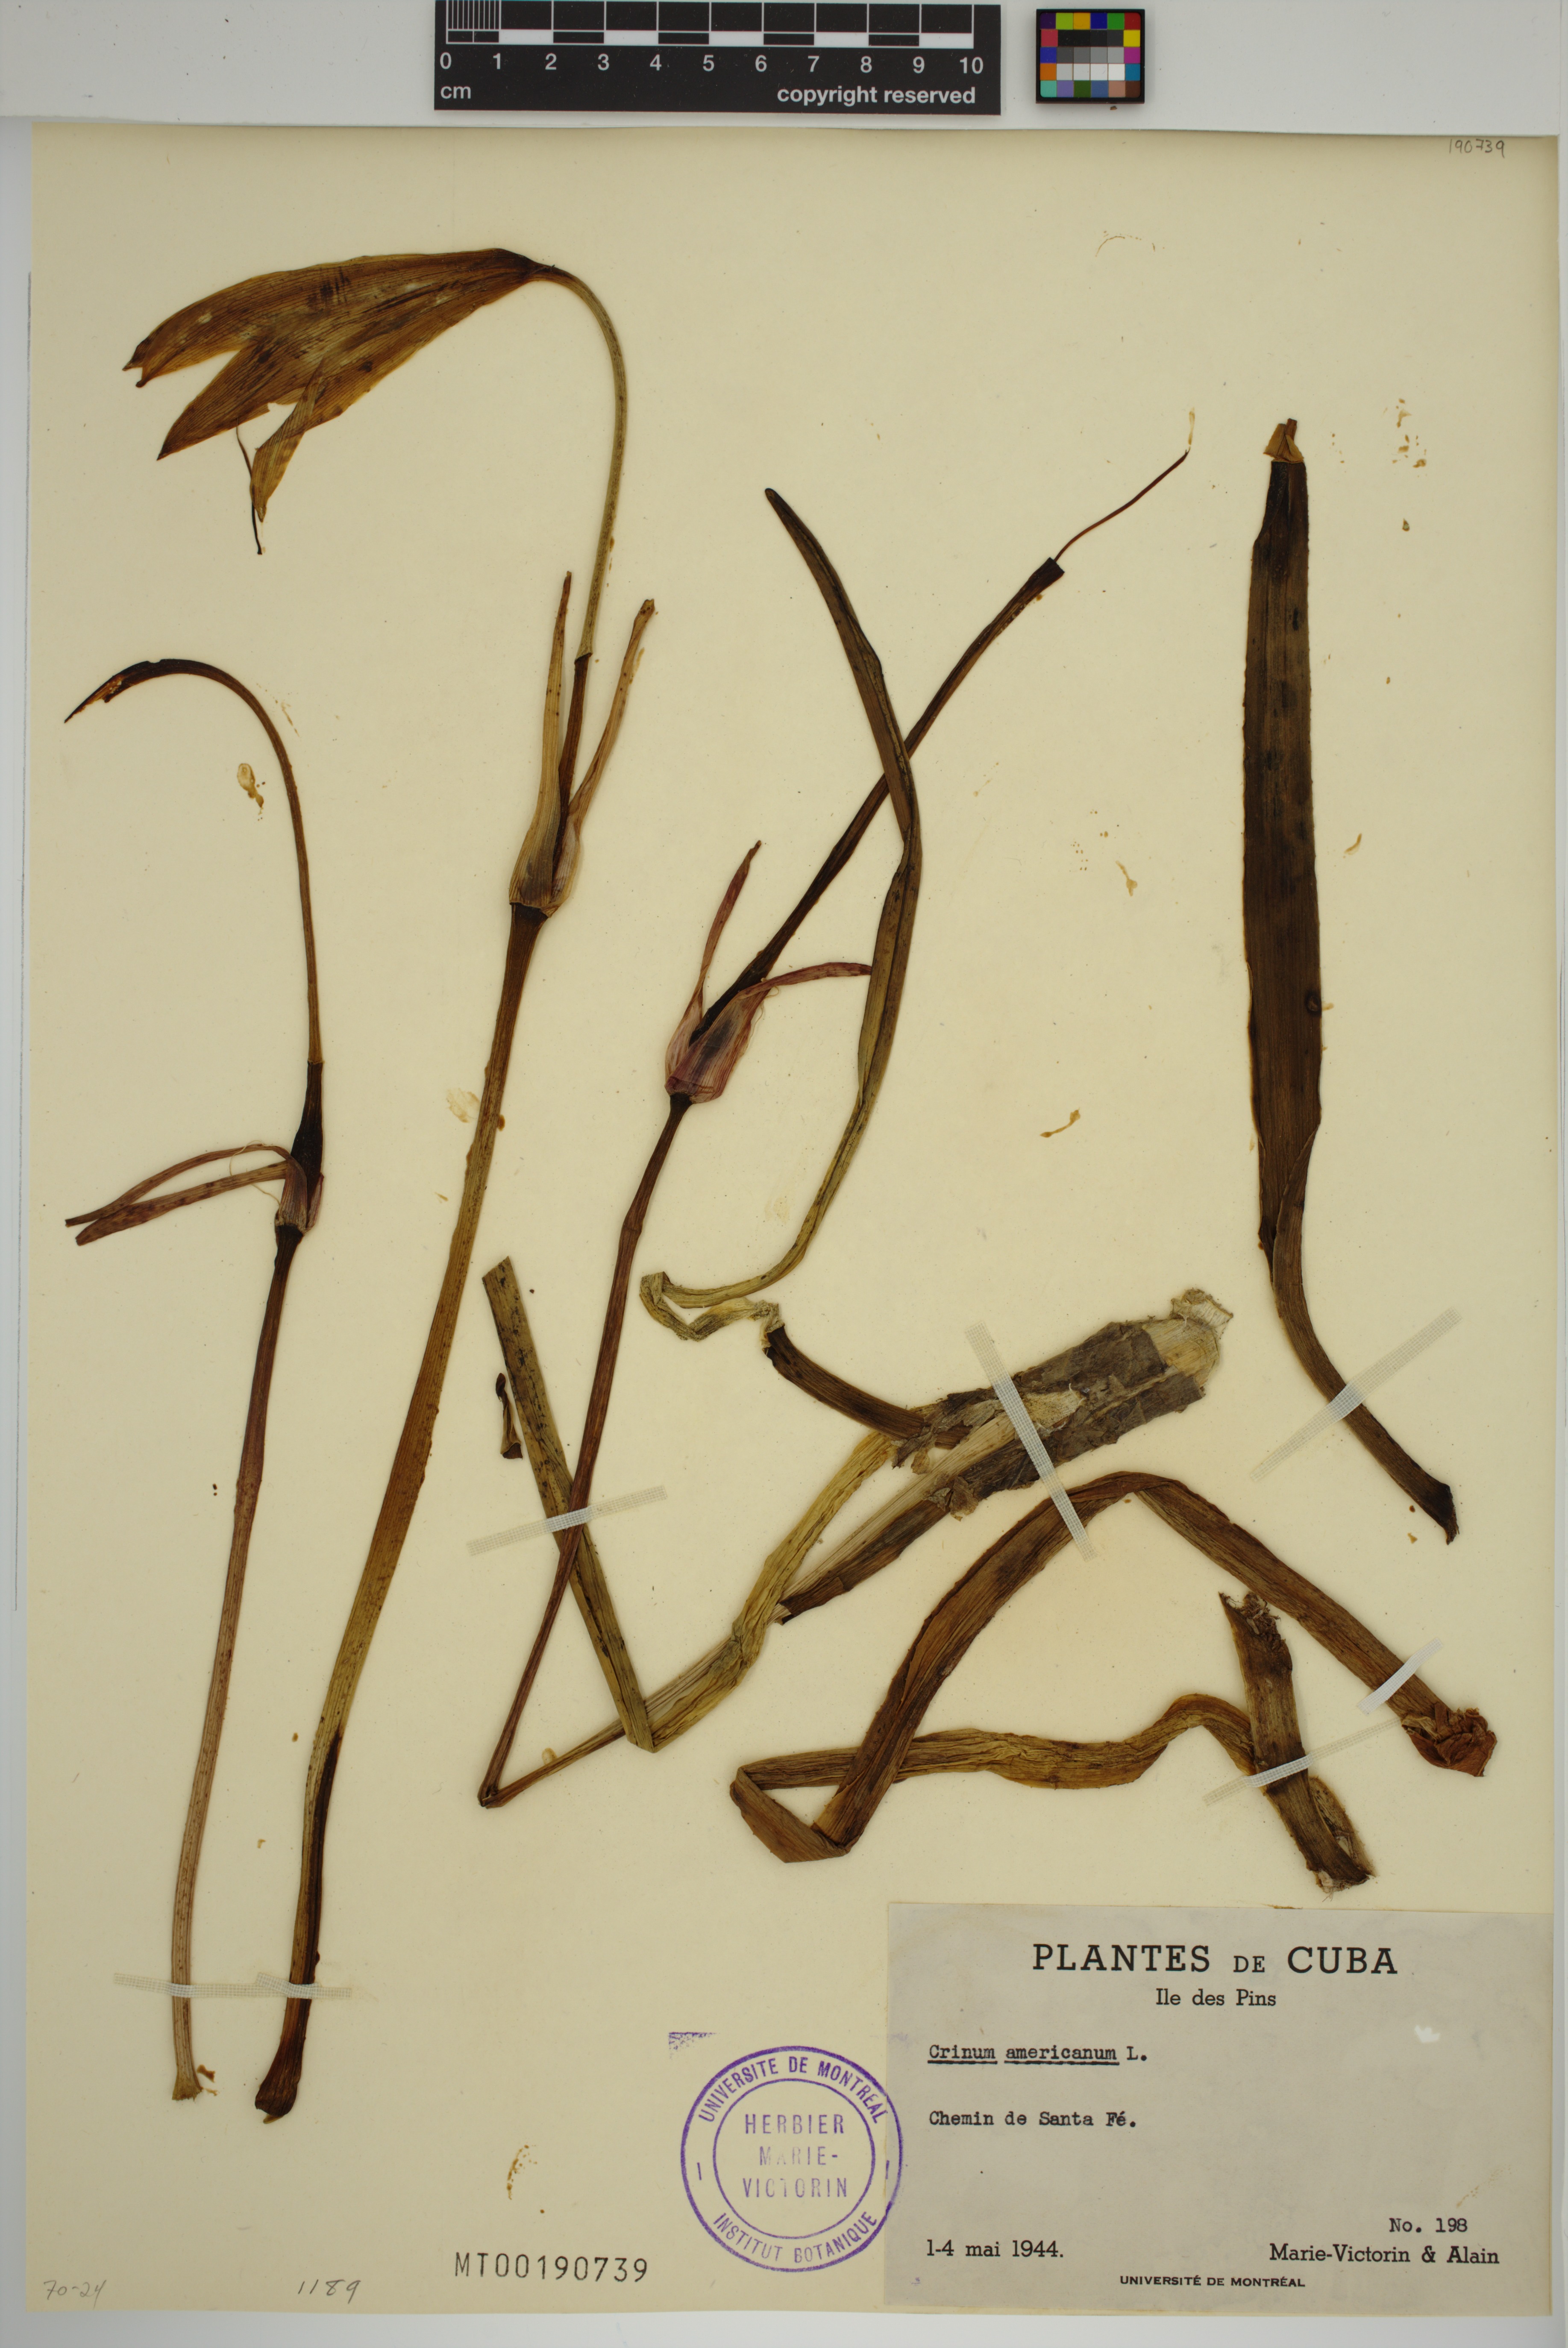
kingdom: Plantae
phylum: Tracheophyta
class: Liliopsida
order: Asparagales
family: Amaryllidaceae
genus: Crinum
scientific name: Crinum americanum
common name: Florida swamp-lily
